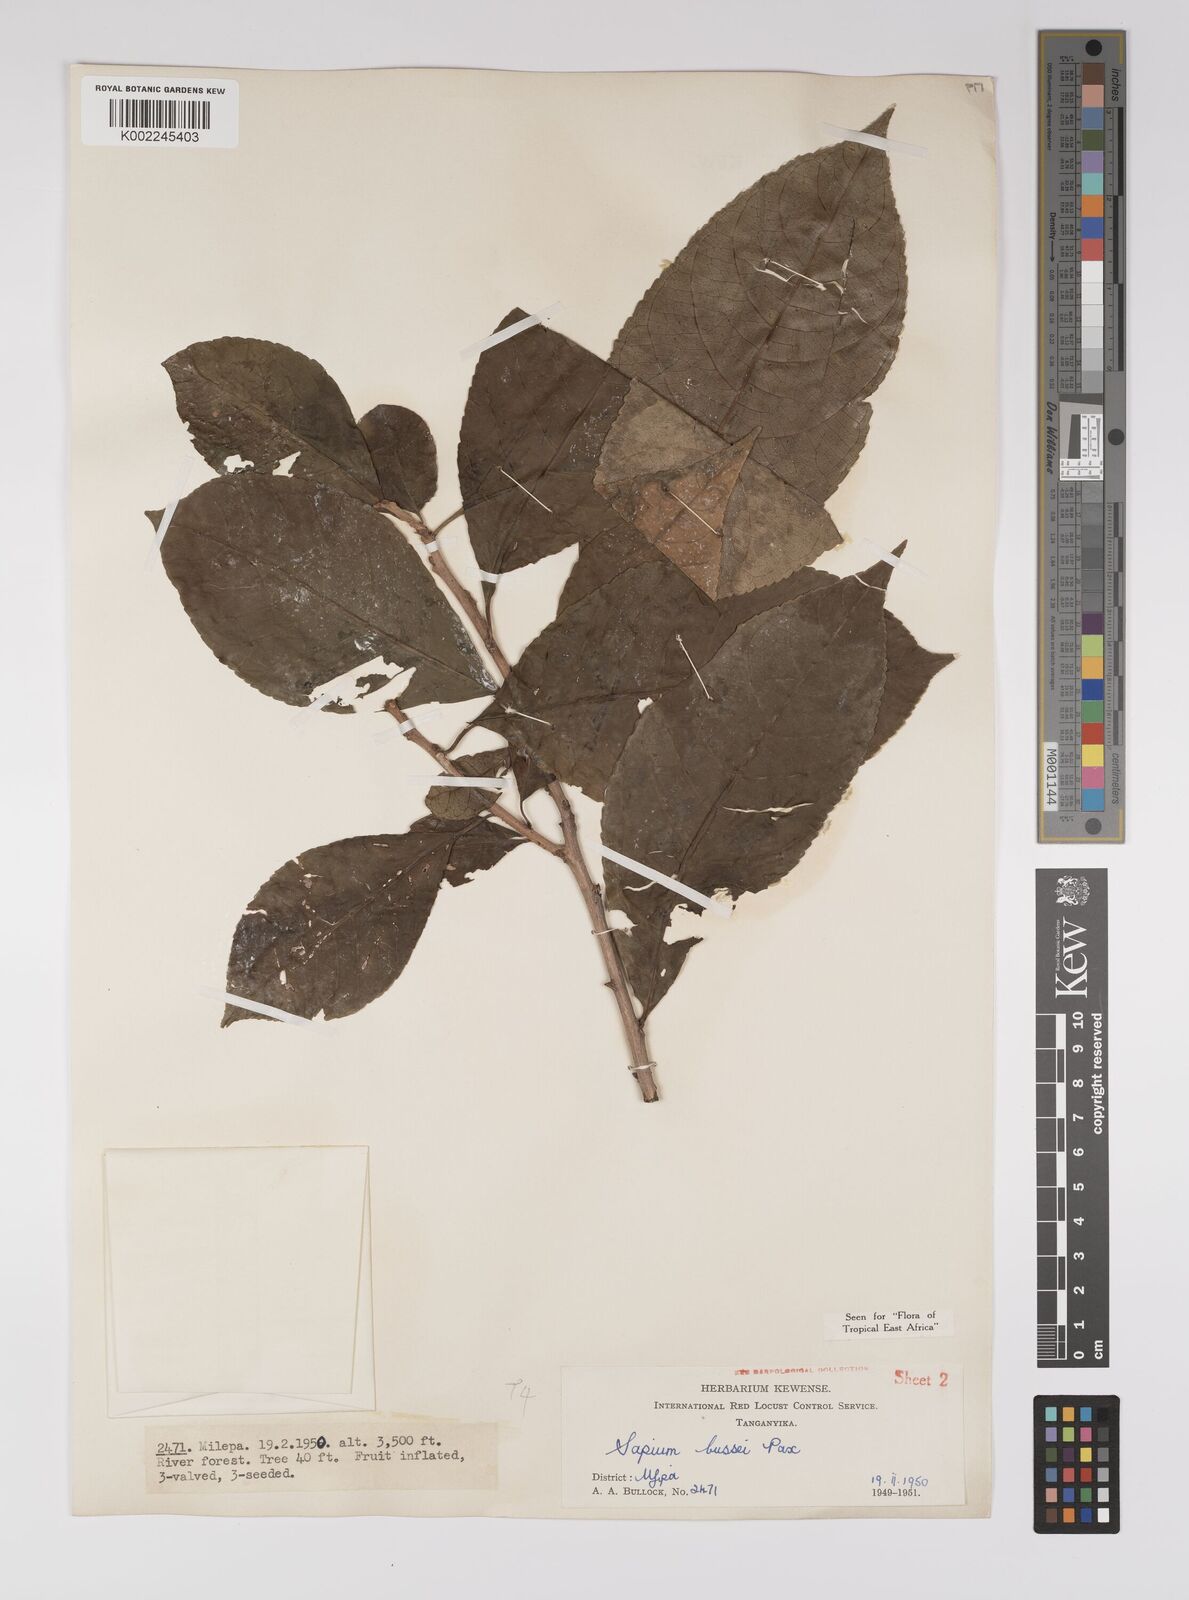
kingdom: Plantae
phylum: Tracheophyta
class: Magnoliopsida
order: Malpighiales
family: Euphorbiaceae
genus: Excoecaria
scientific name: Excoecaria bussei
